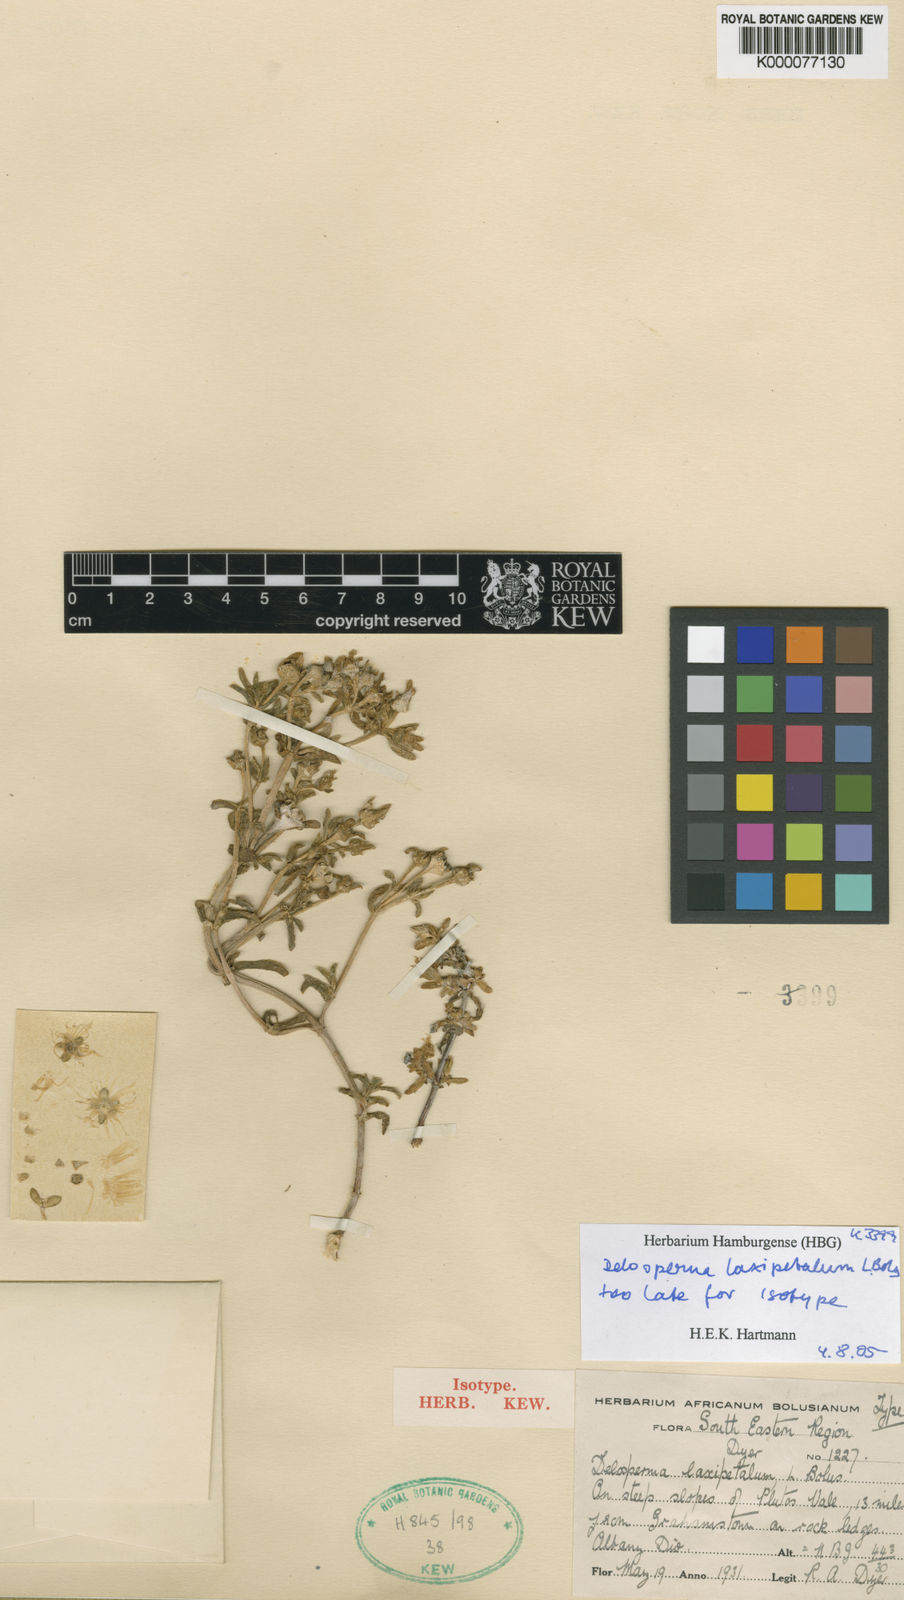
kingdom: Plantae
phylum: Tracheophyta
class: Magnoliopsida
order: Caryophyllales
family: Aizoaceae
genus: Delosperma
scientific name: Delosperma laxipetalum
